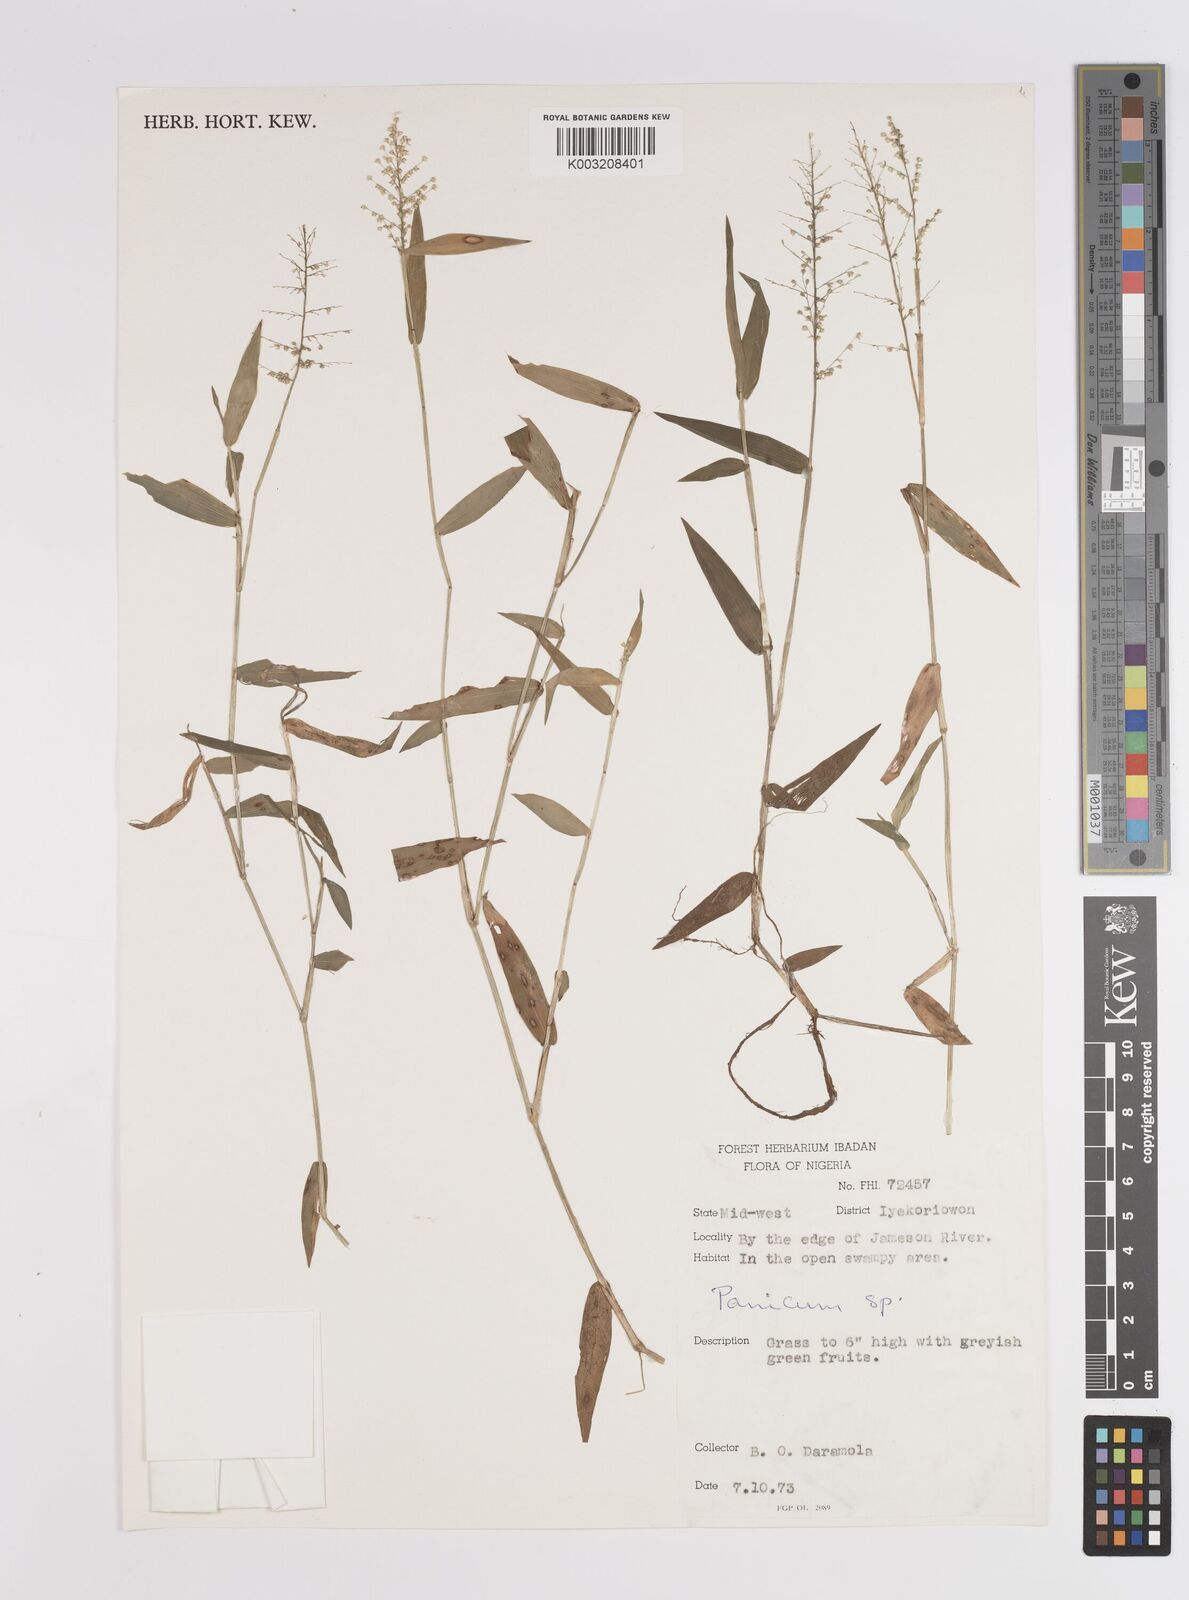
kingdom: Plantae
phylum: Tracheophyta
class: Liliopsida
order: Poales
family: Poaceae
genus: Panicum
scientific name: Panicum
